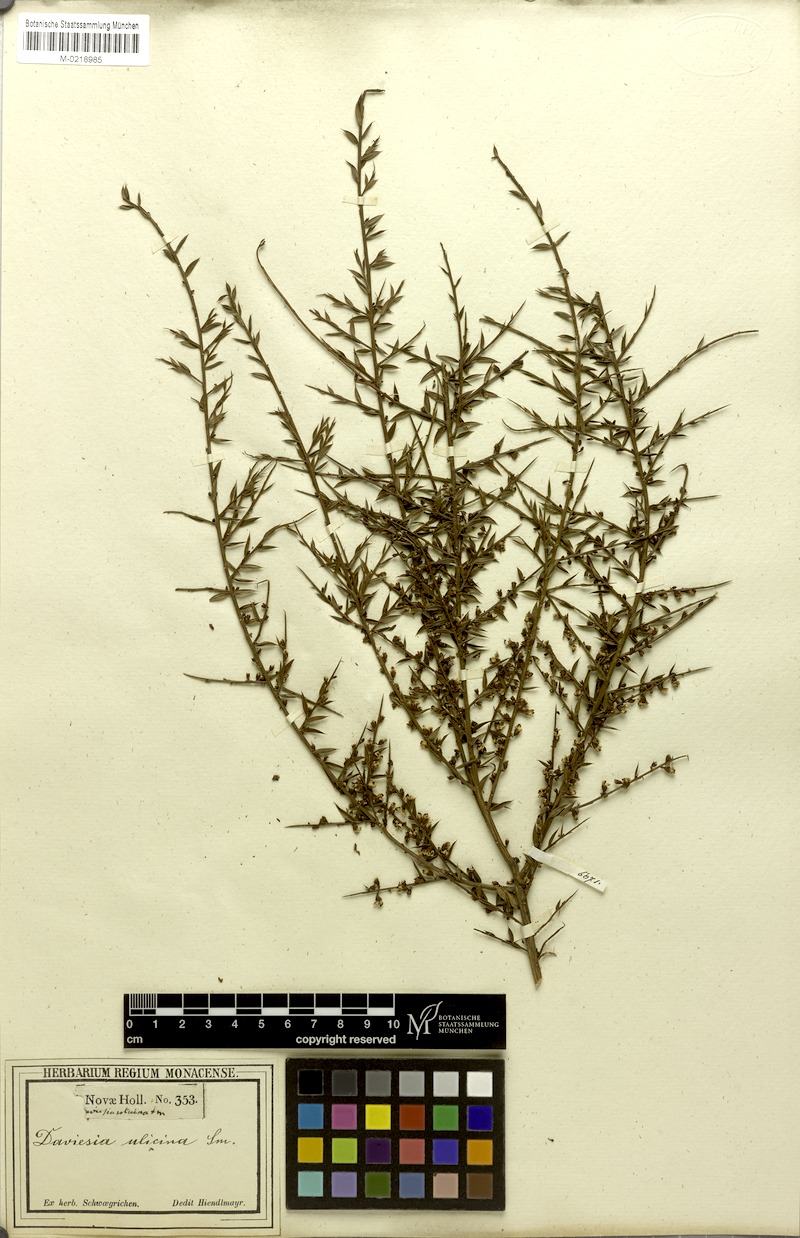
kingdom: Plantae
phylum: Tracheophyta
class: Magnoliopsida
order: Fabales
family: Fabaceae
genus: Daviesia
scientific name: Daviesia ulicifolia
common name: Gorse bitter-pea
